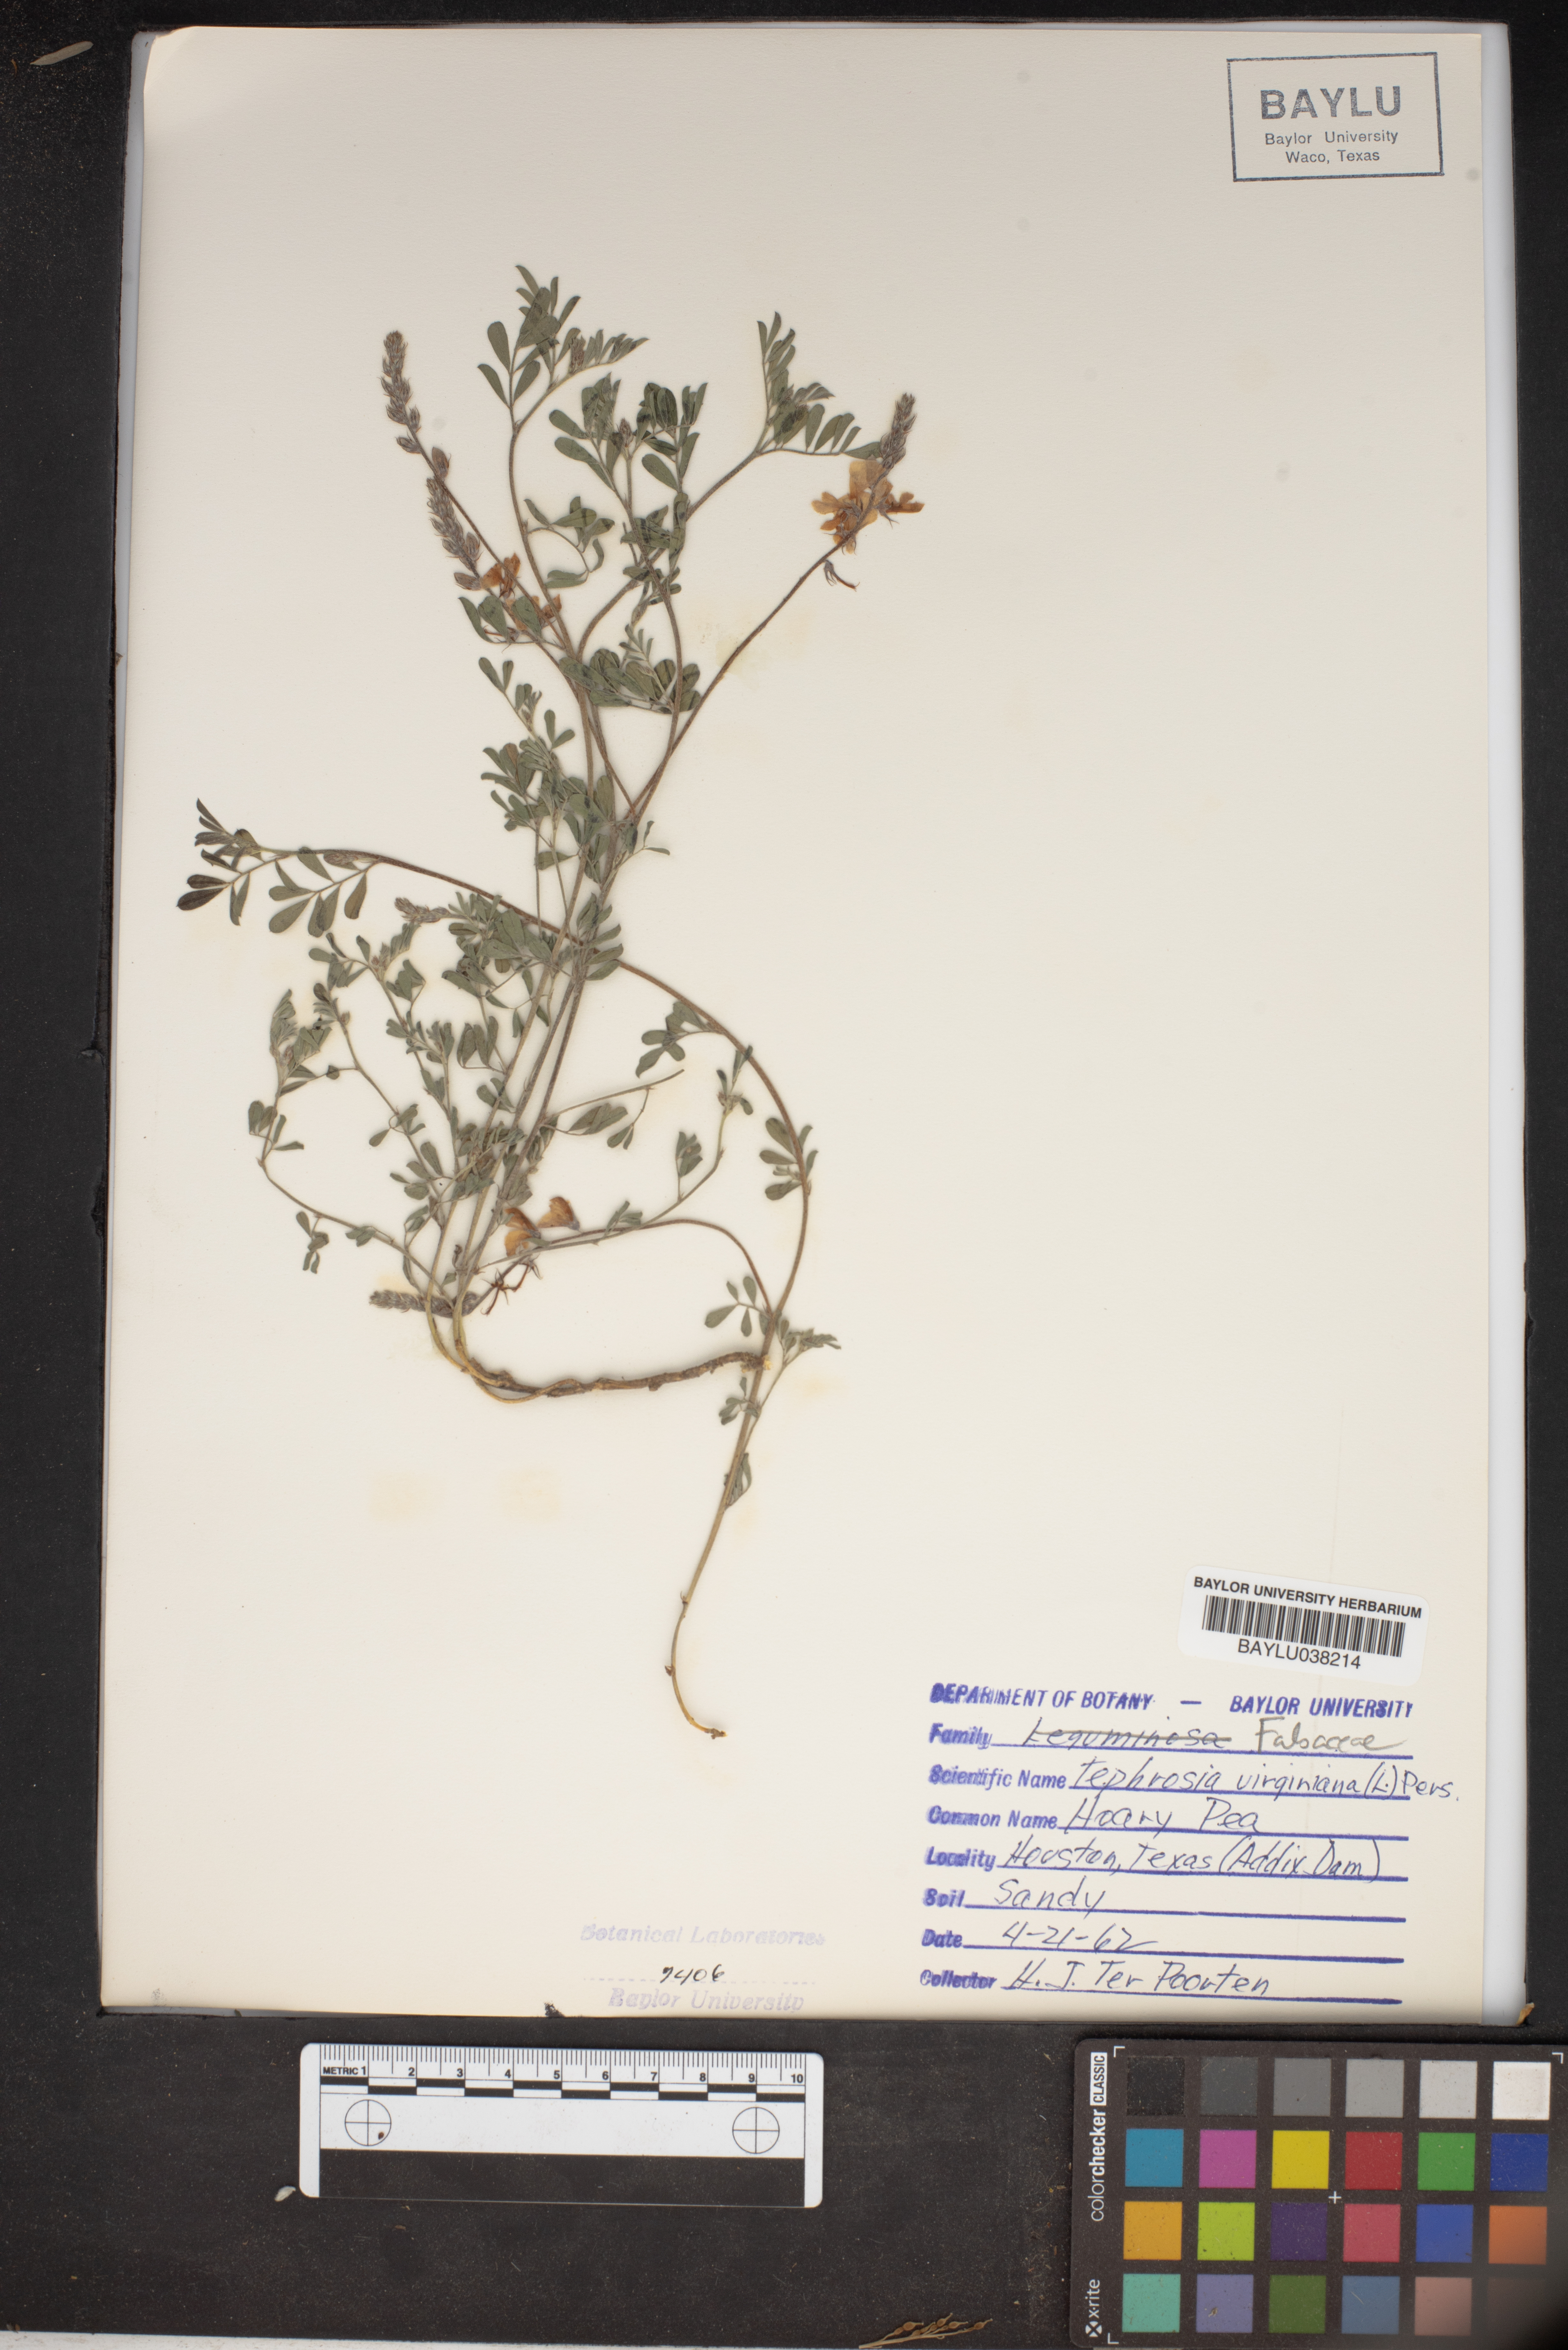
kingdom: Plantae
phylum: Tracheophyta
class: Magnoliopsida
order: Fabales
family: Fabaceae
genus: Tephrosia
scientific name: Tephrosia virginiana
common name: Rabbit-pea
